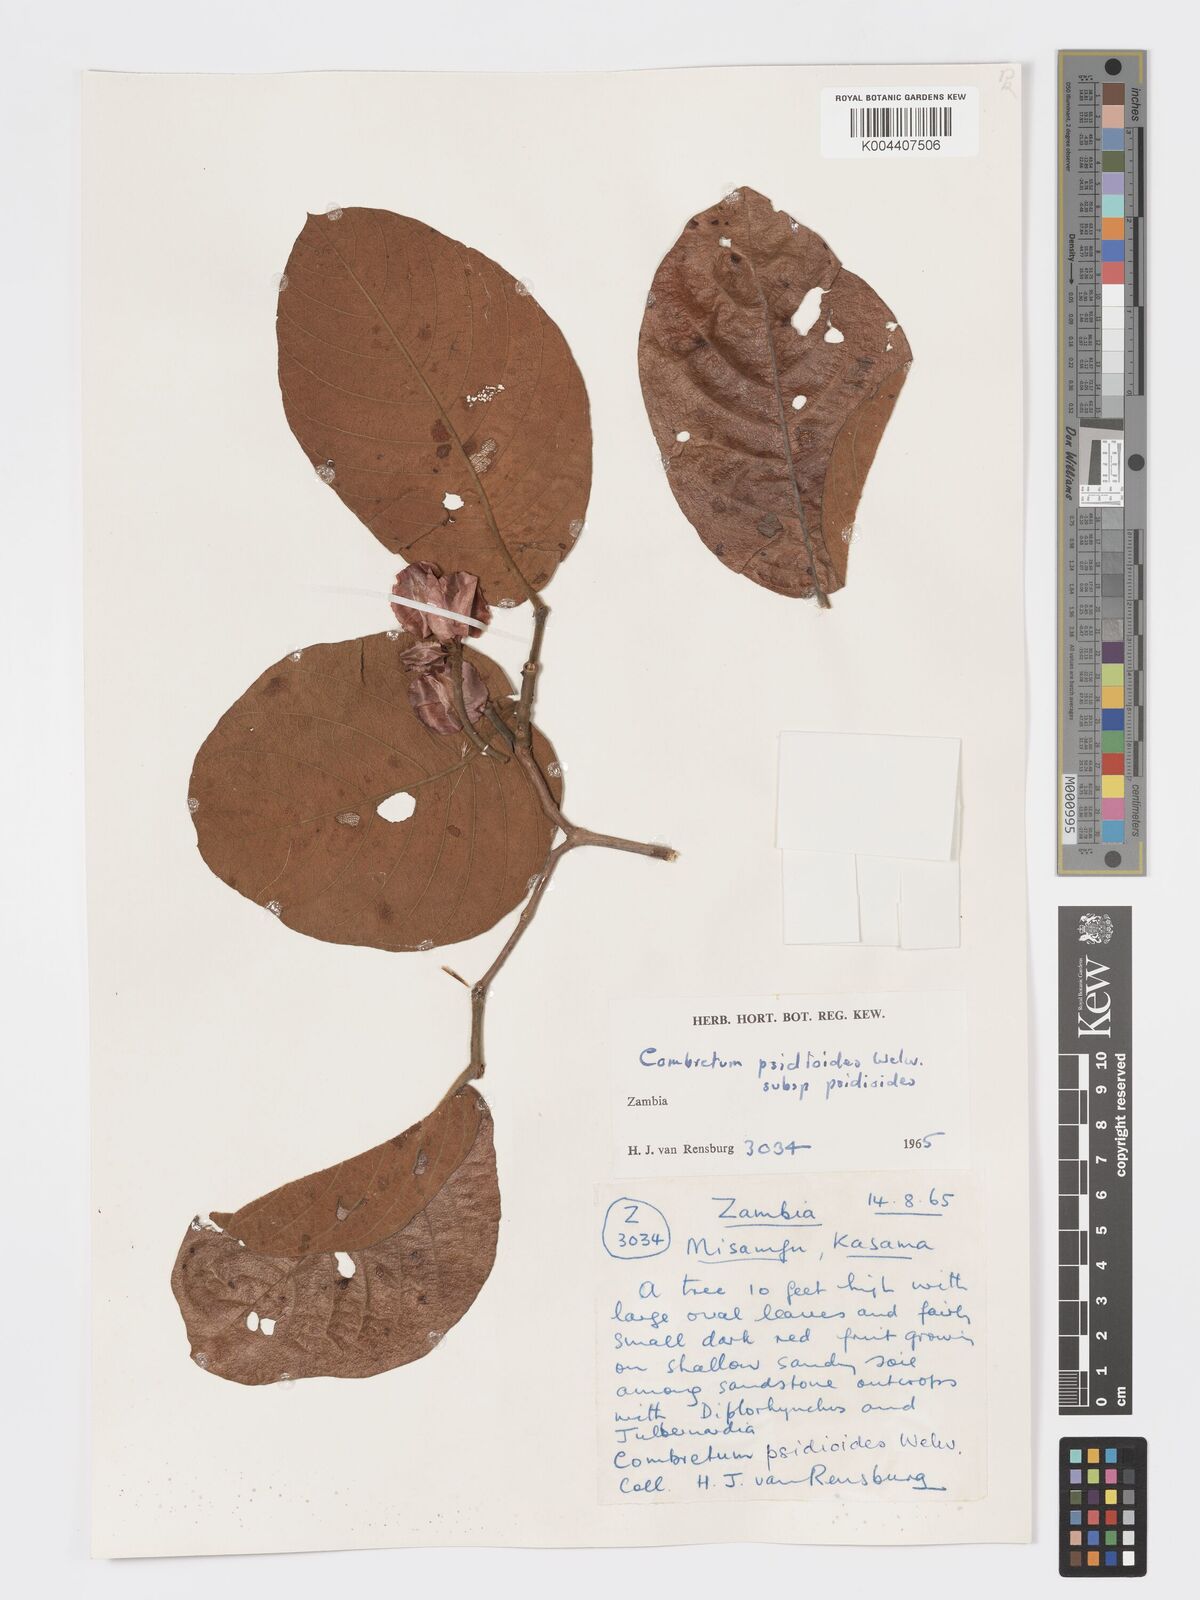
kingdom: Plantae
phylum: Tracheophyta
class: Magnoliopsida
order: Myrtales
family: Combretaceae
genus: Combretum
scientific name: Combretum psidioides
